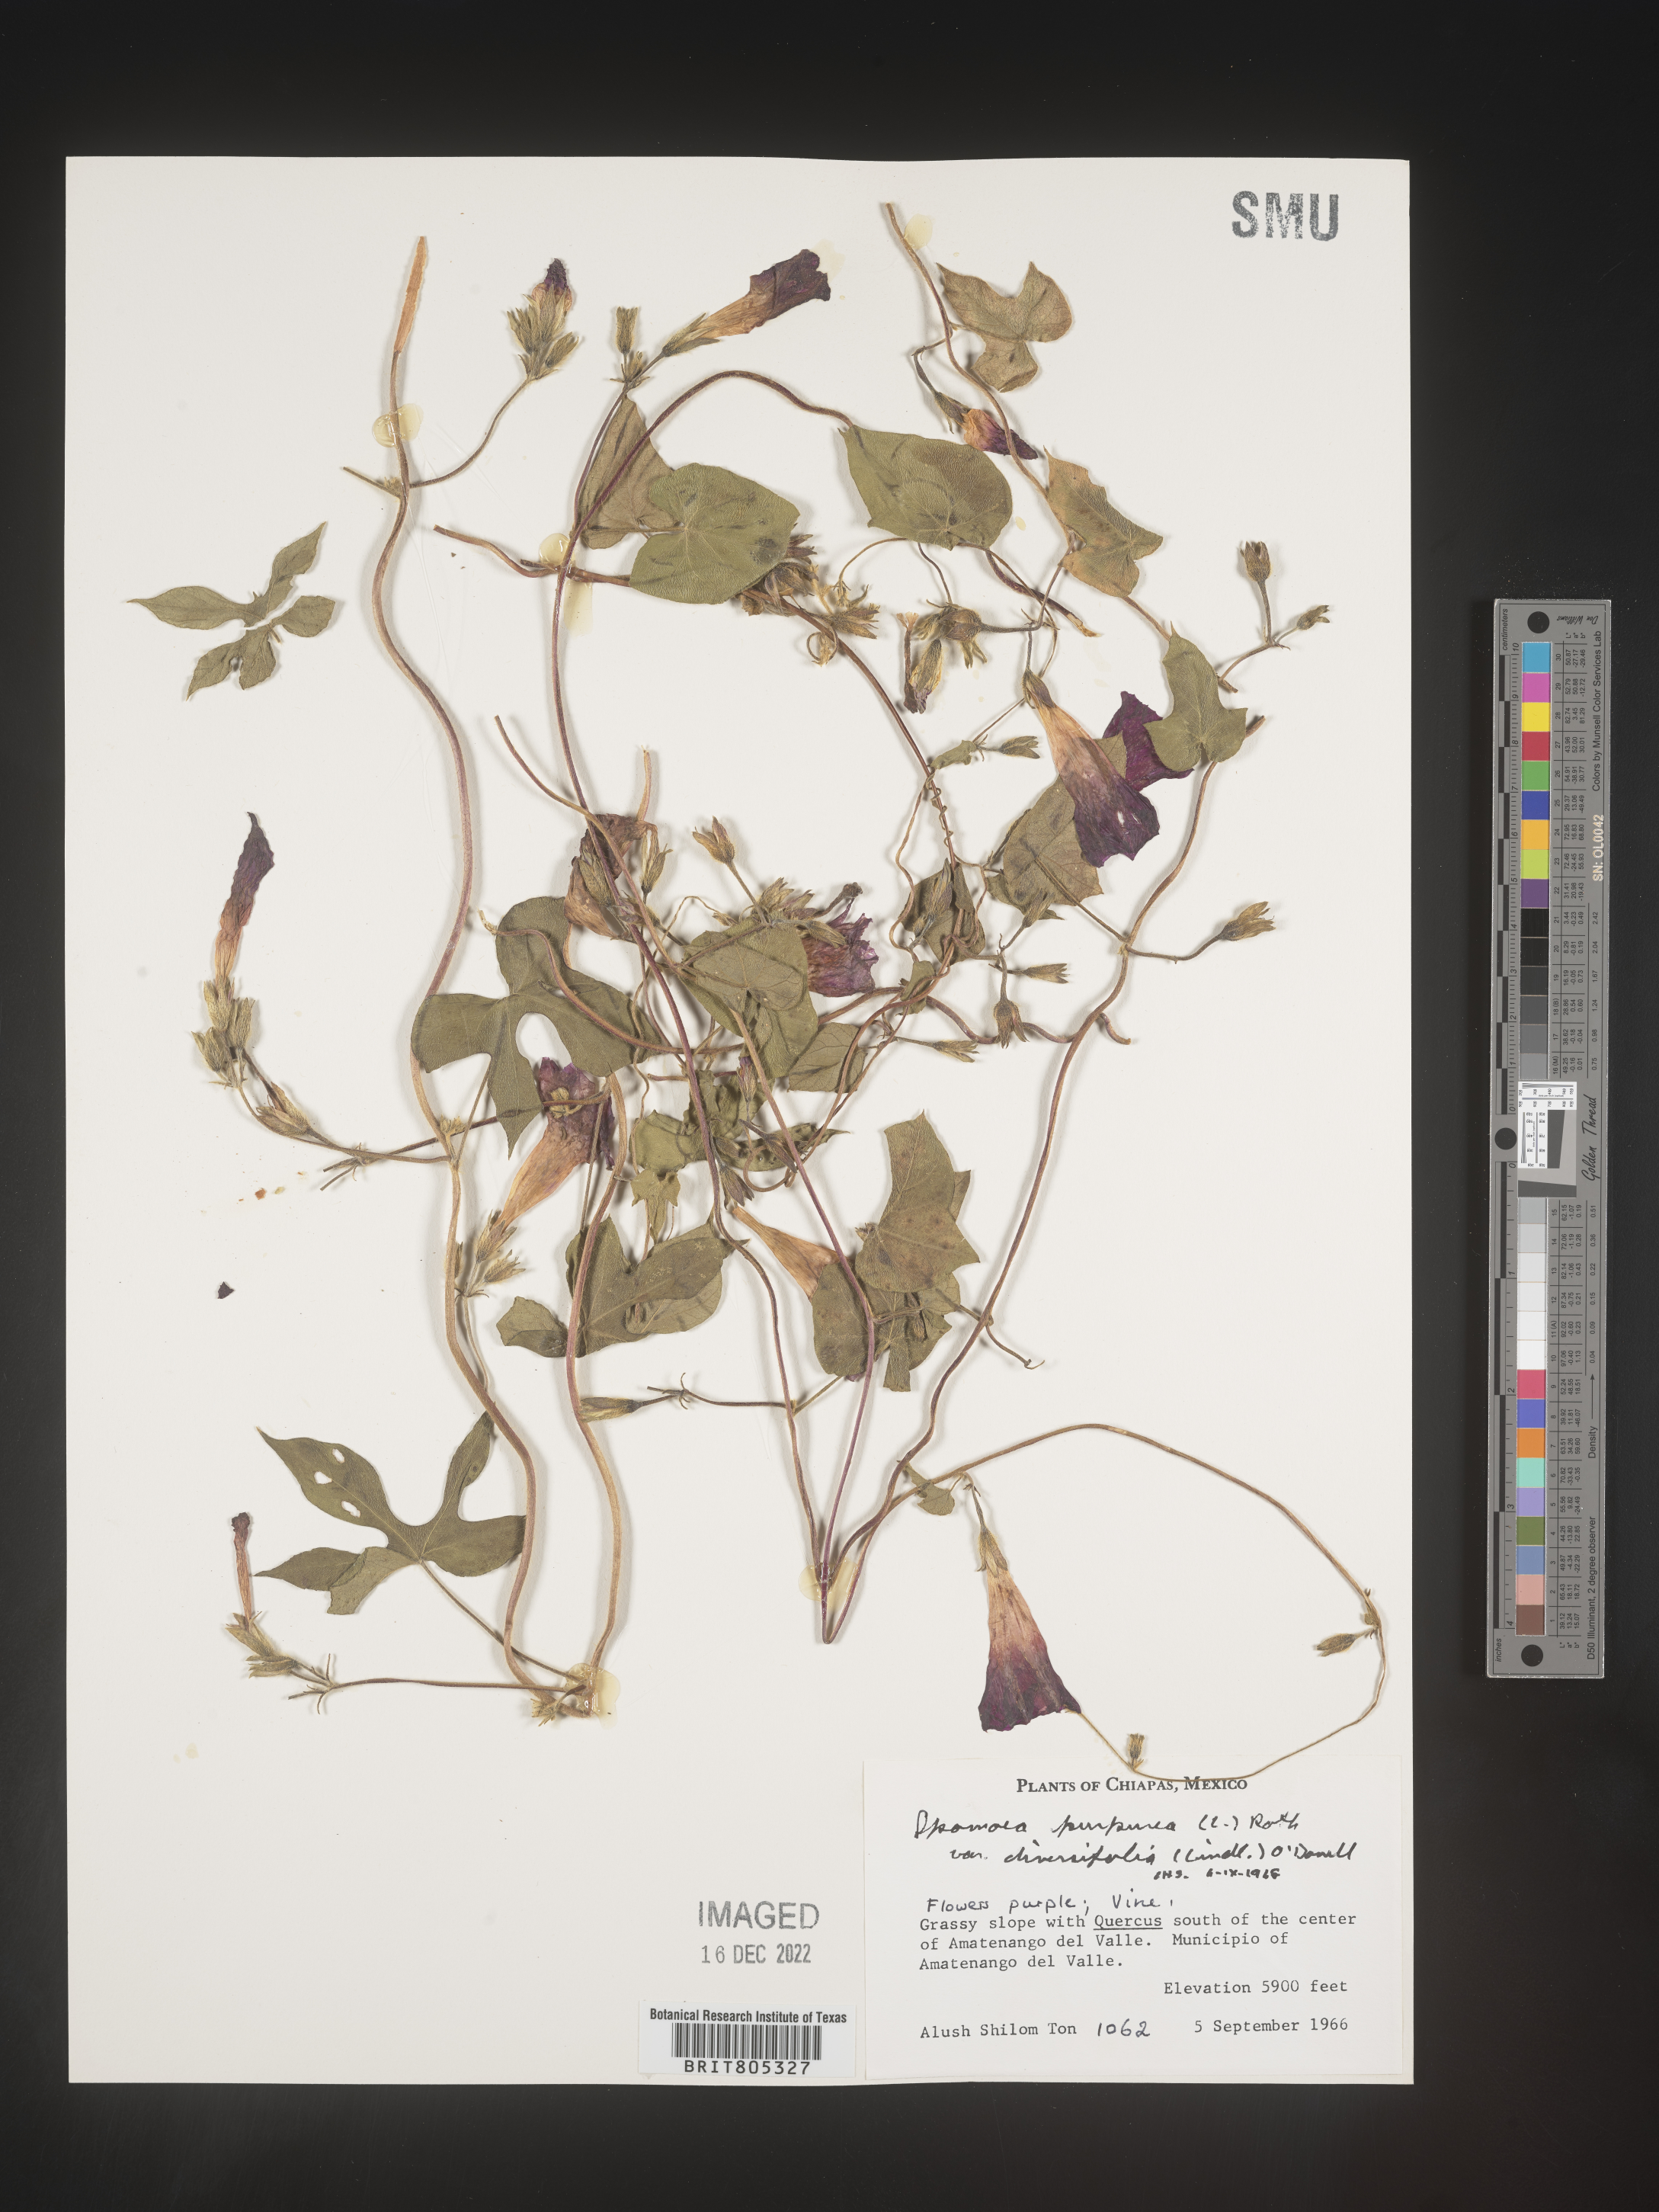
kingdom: Plantae
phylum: Tracheophyta
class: Magnoliopsida
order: Solanales
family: Convolvulaceae
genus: Ipomoea
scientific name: Ipomoea
